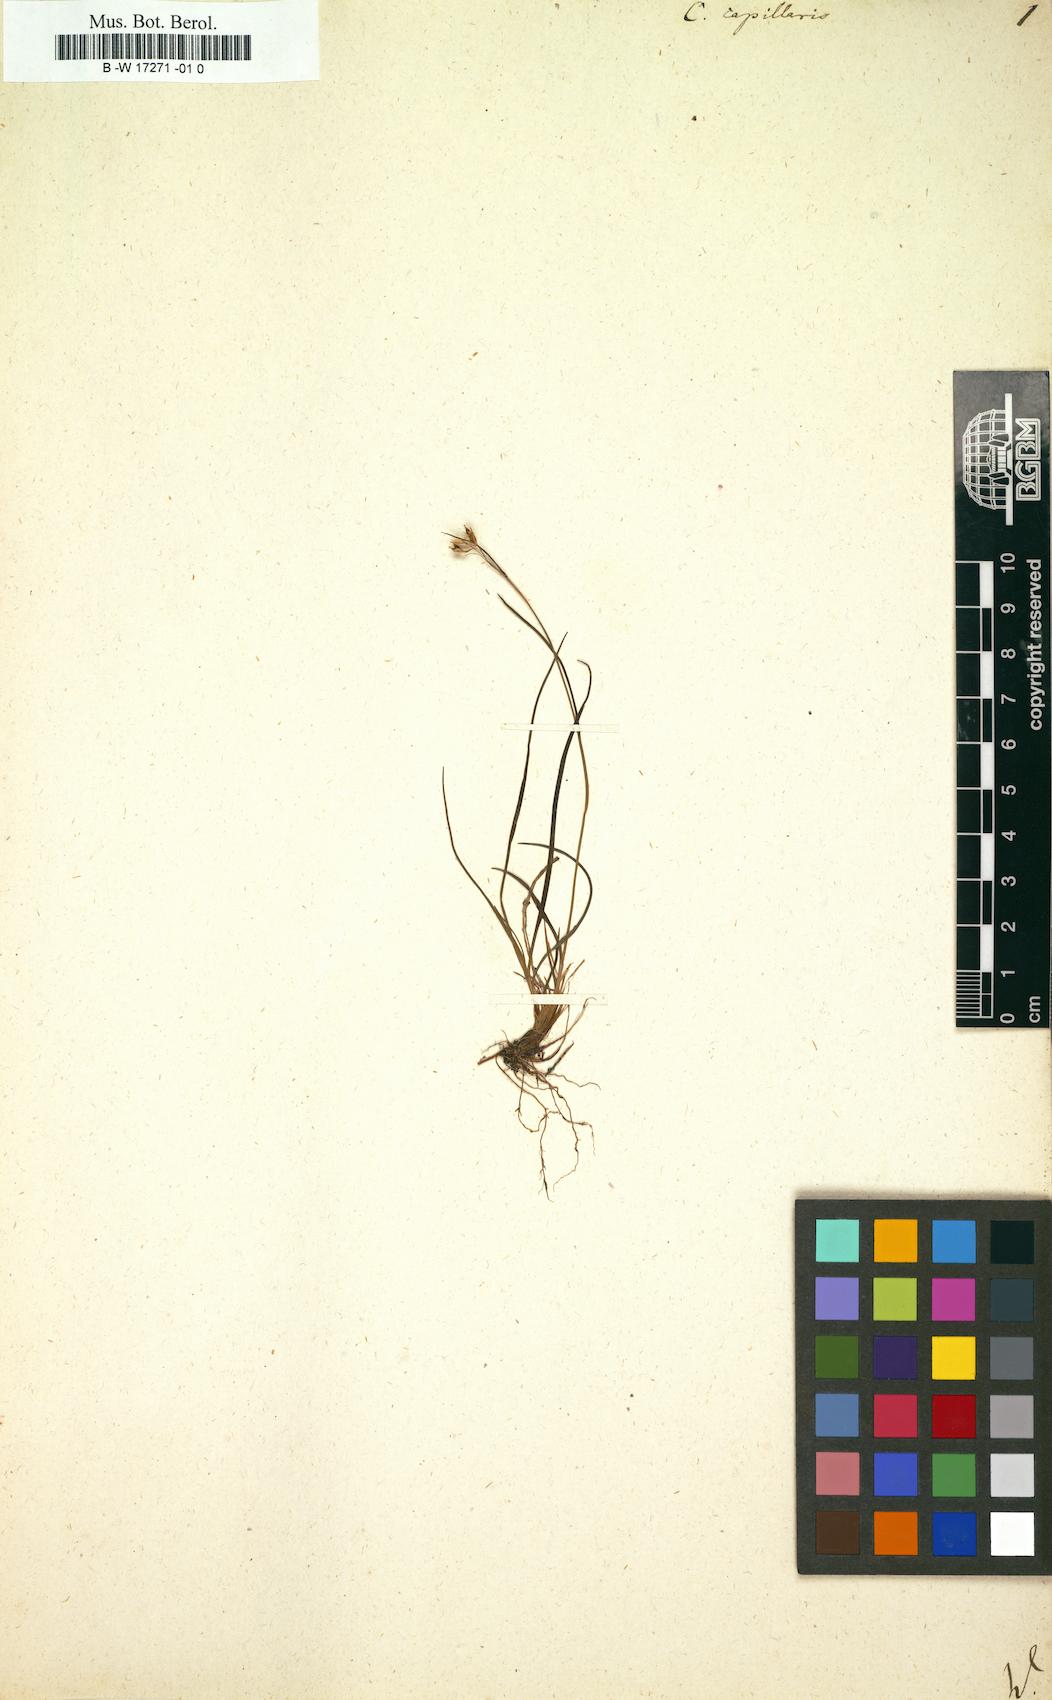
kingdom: Plantae
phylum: Tracheophyta
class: Liliopsida
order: Poales
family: Cyperaceae
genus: Carex
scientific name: Carex capillaris
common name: Hair sedge
